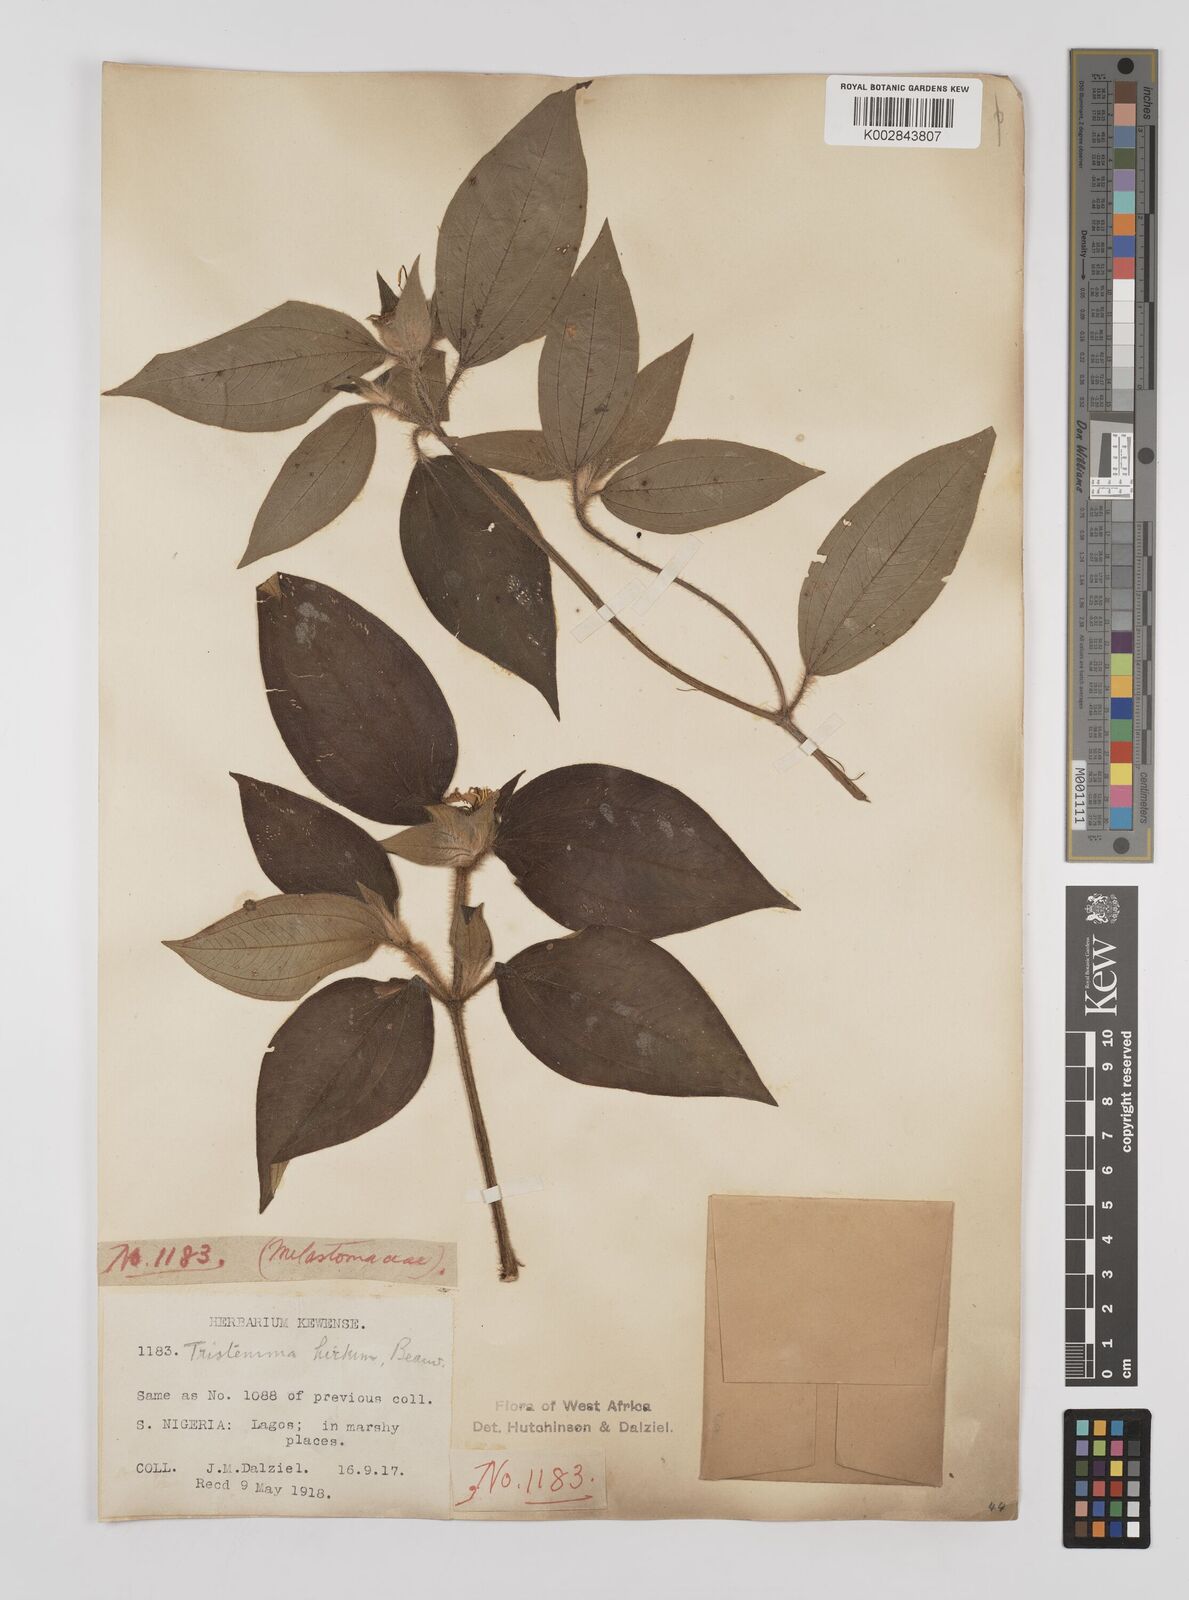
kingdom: Plantae
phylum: Tracheophyta
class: Magnoliopsida
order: Myrtales
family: Melastomataceae
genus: Tristemma
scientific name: Tristemma hirtum
